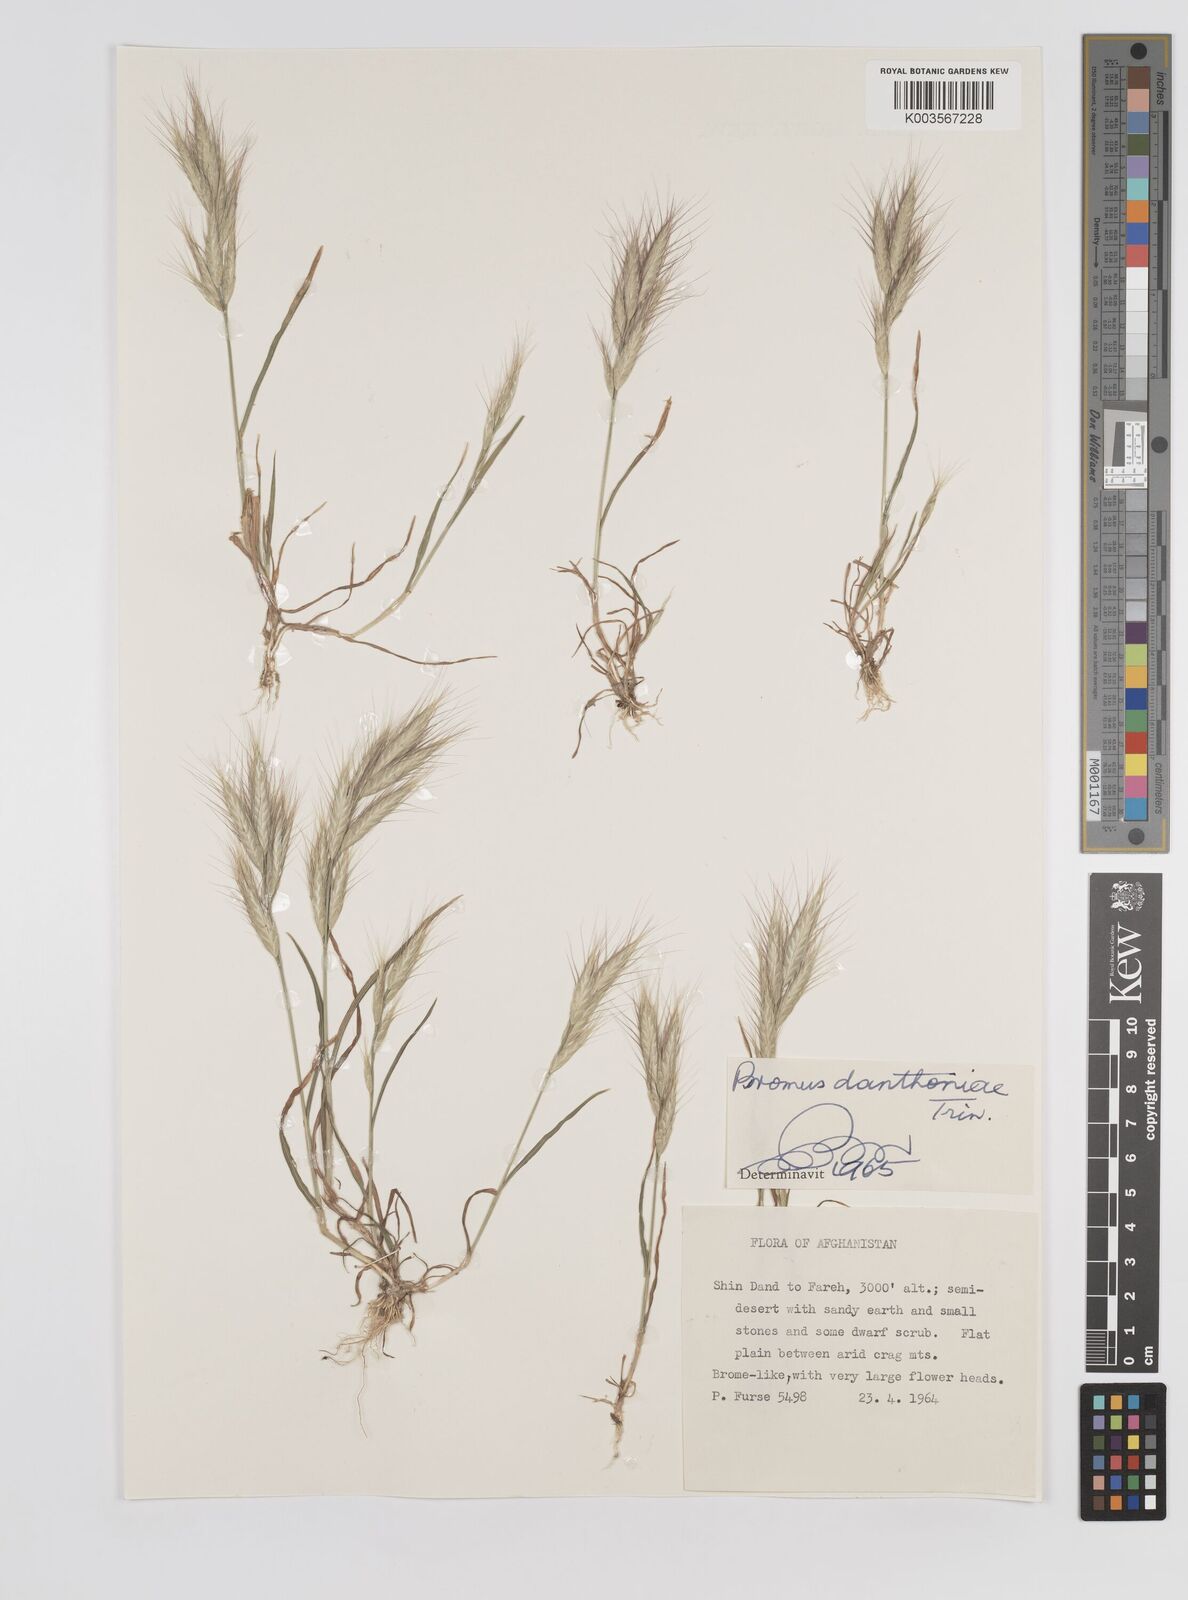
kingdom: Plantae
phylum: Tracheophyta
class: Liliopsida
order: Poales
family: Poaceae
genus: Bromus
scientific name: Bromus danthoniae
